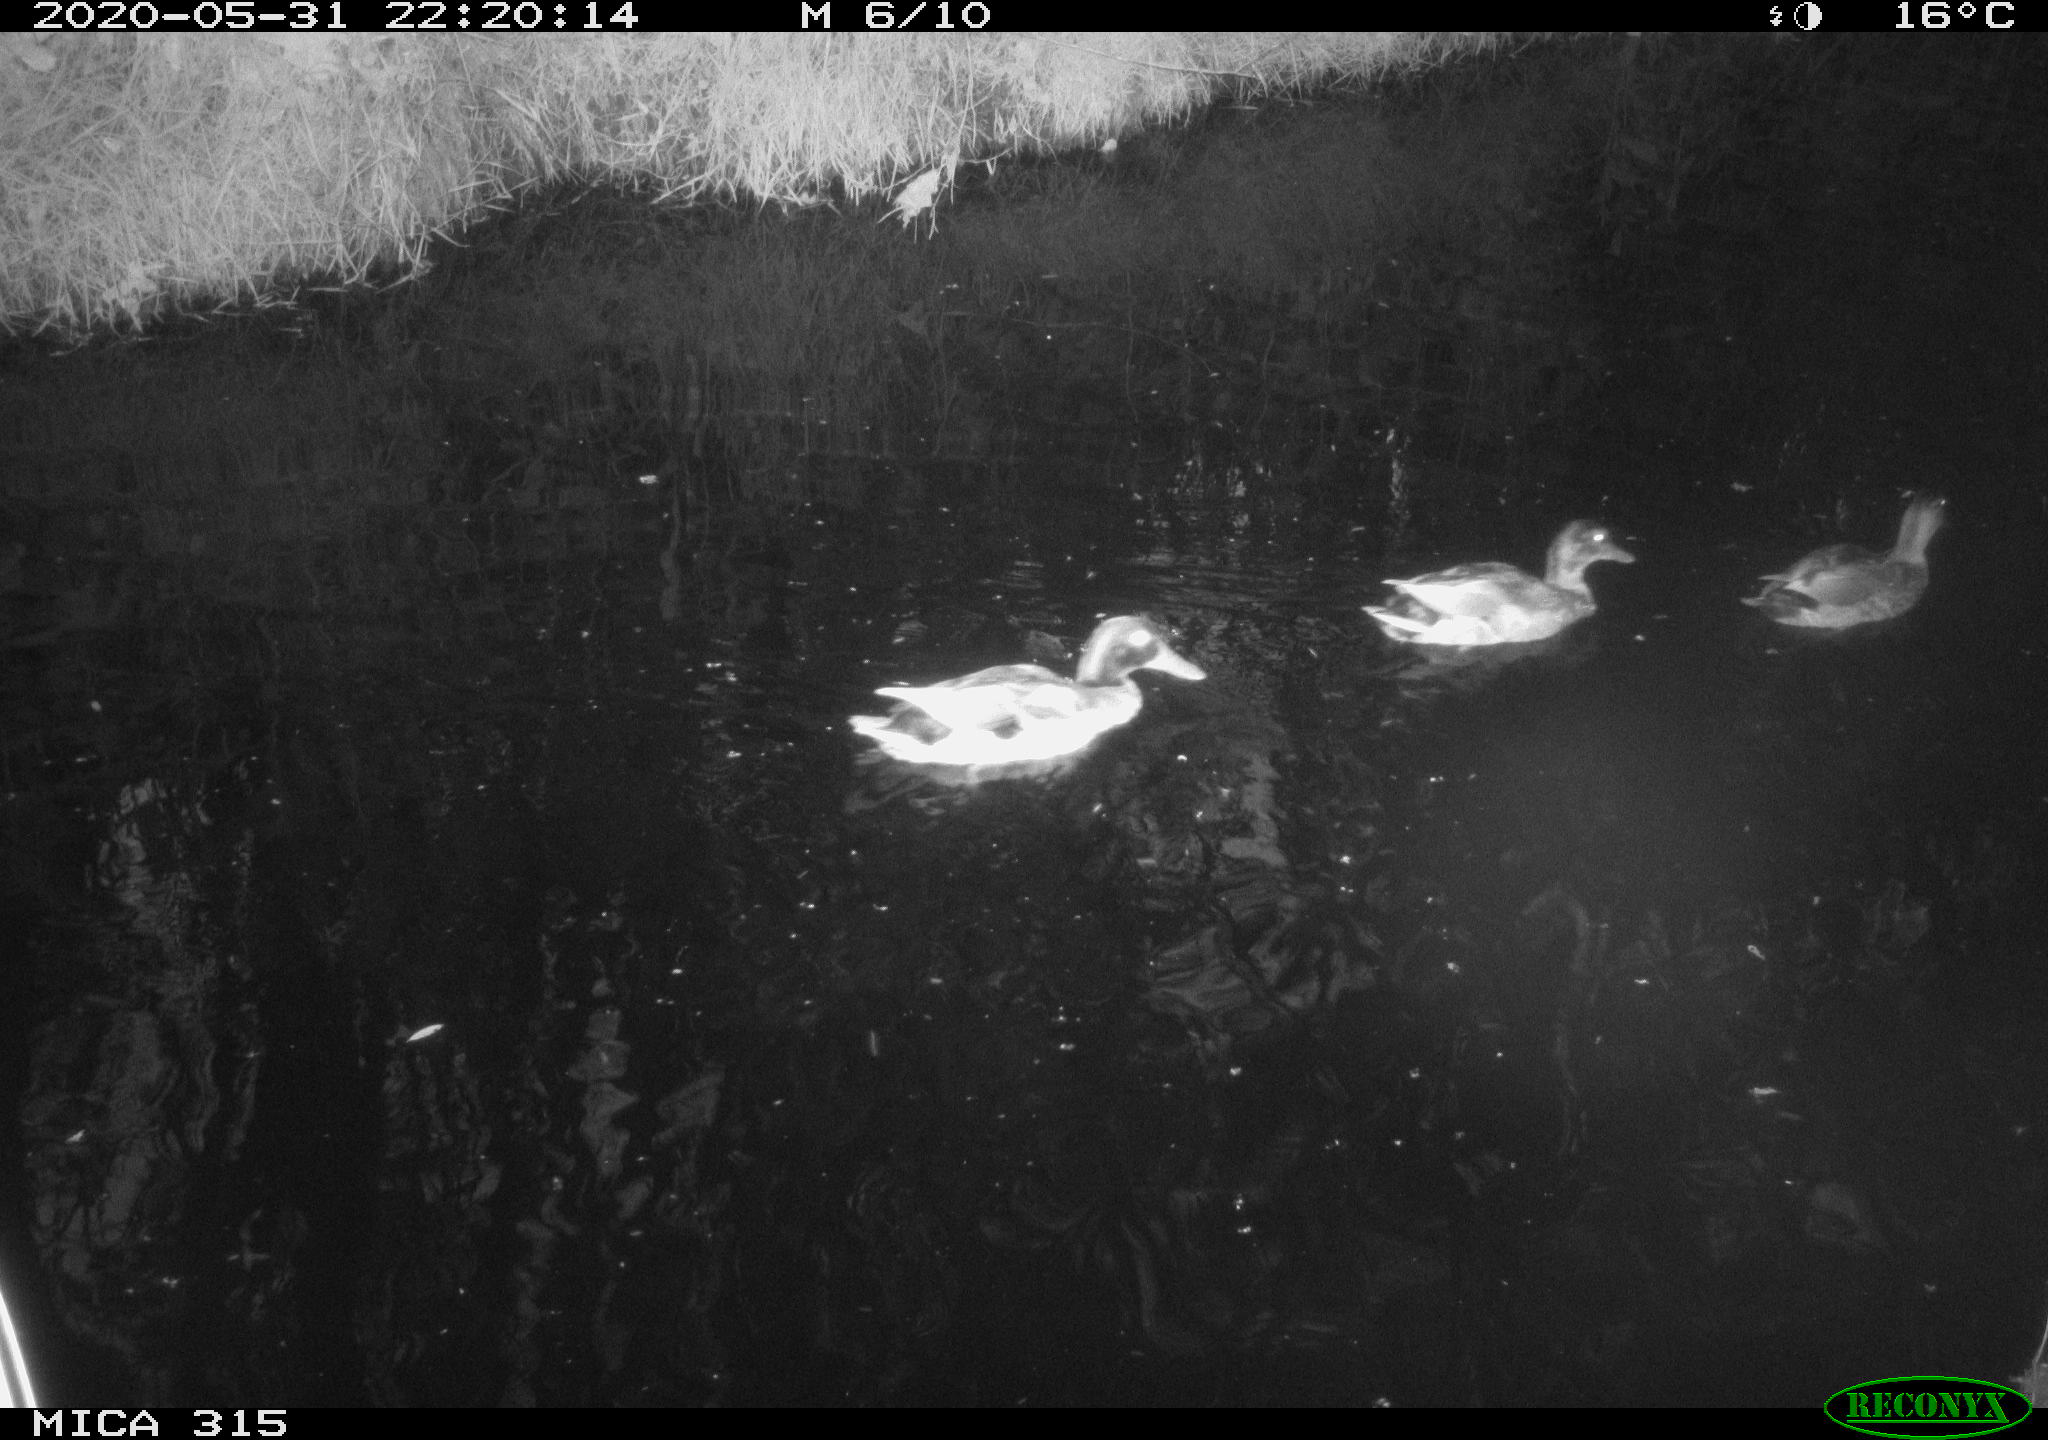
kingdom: Animalia
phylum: Chordata
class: Aves
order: Anseriformes
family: Anatidae
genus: Anas
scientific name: Anas platyrhynchos
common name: Mallard
